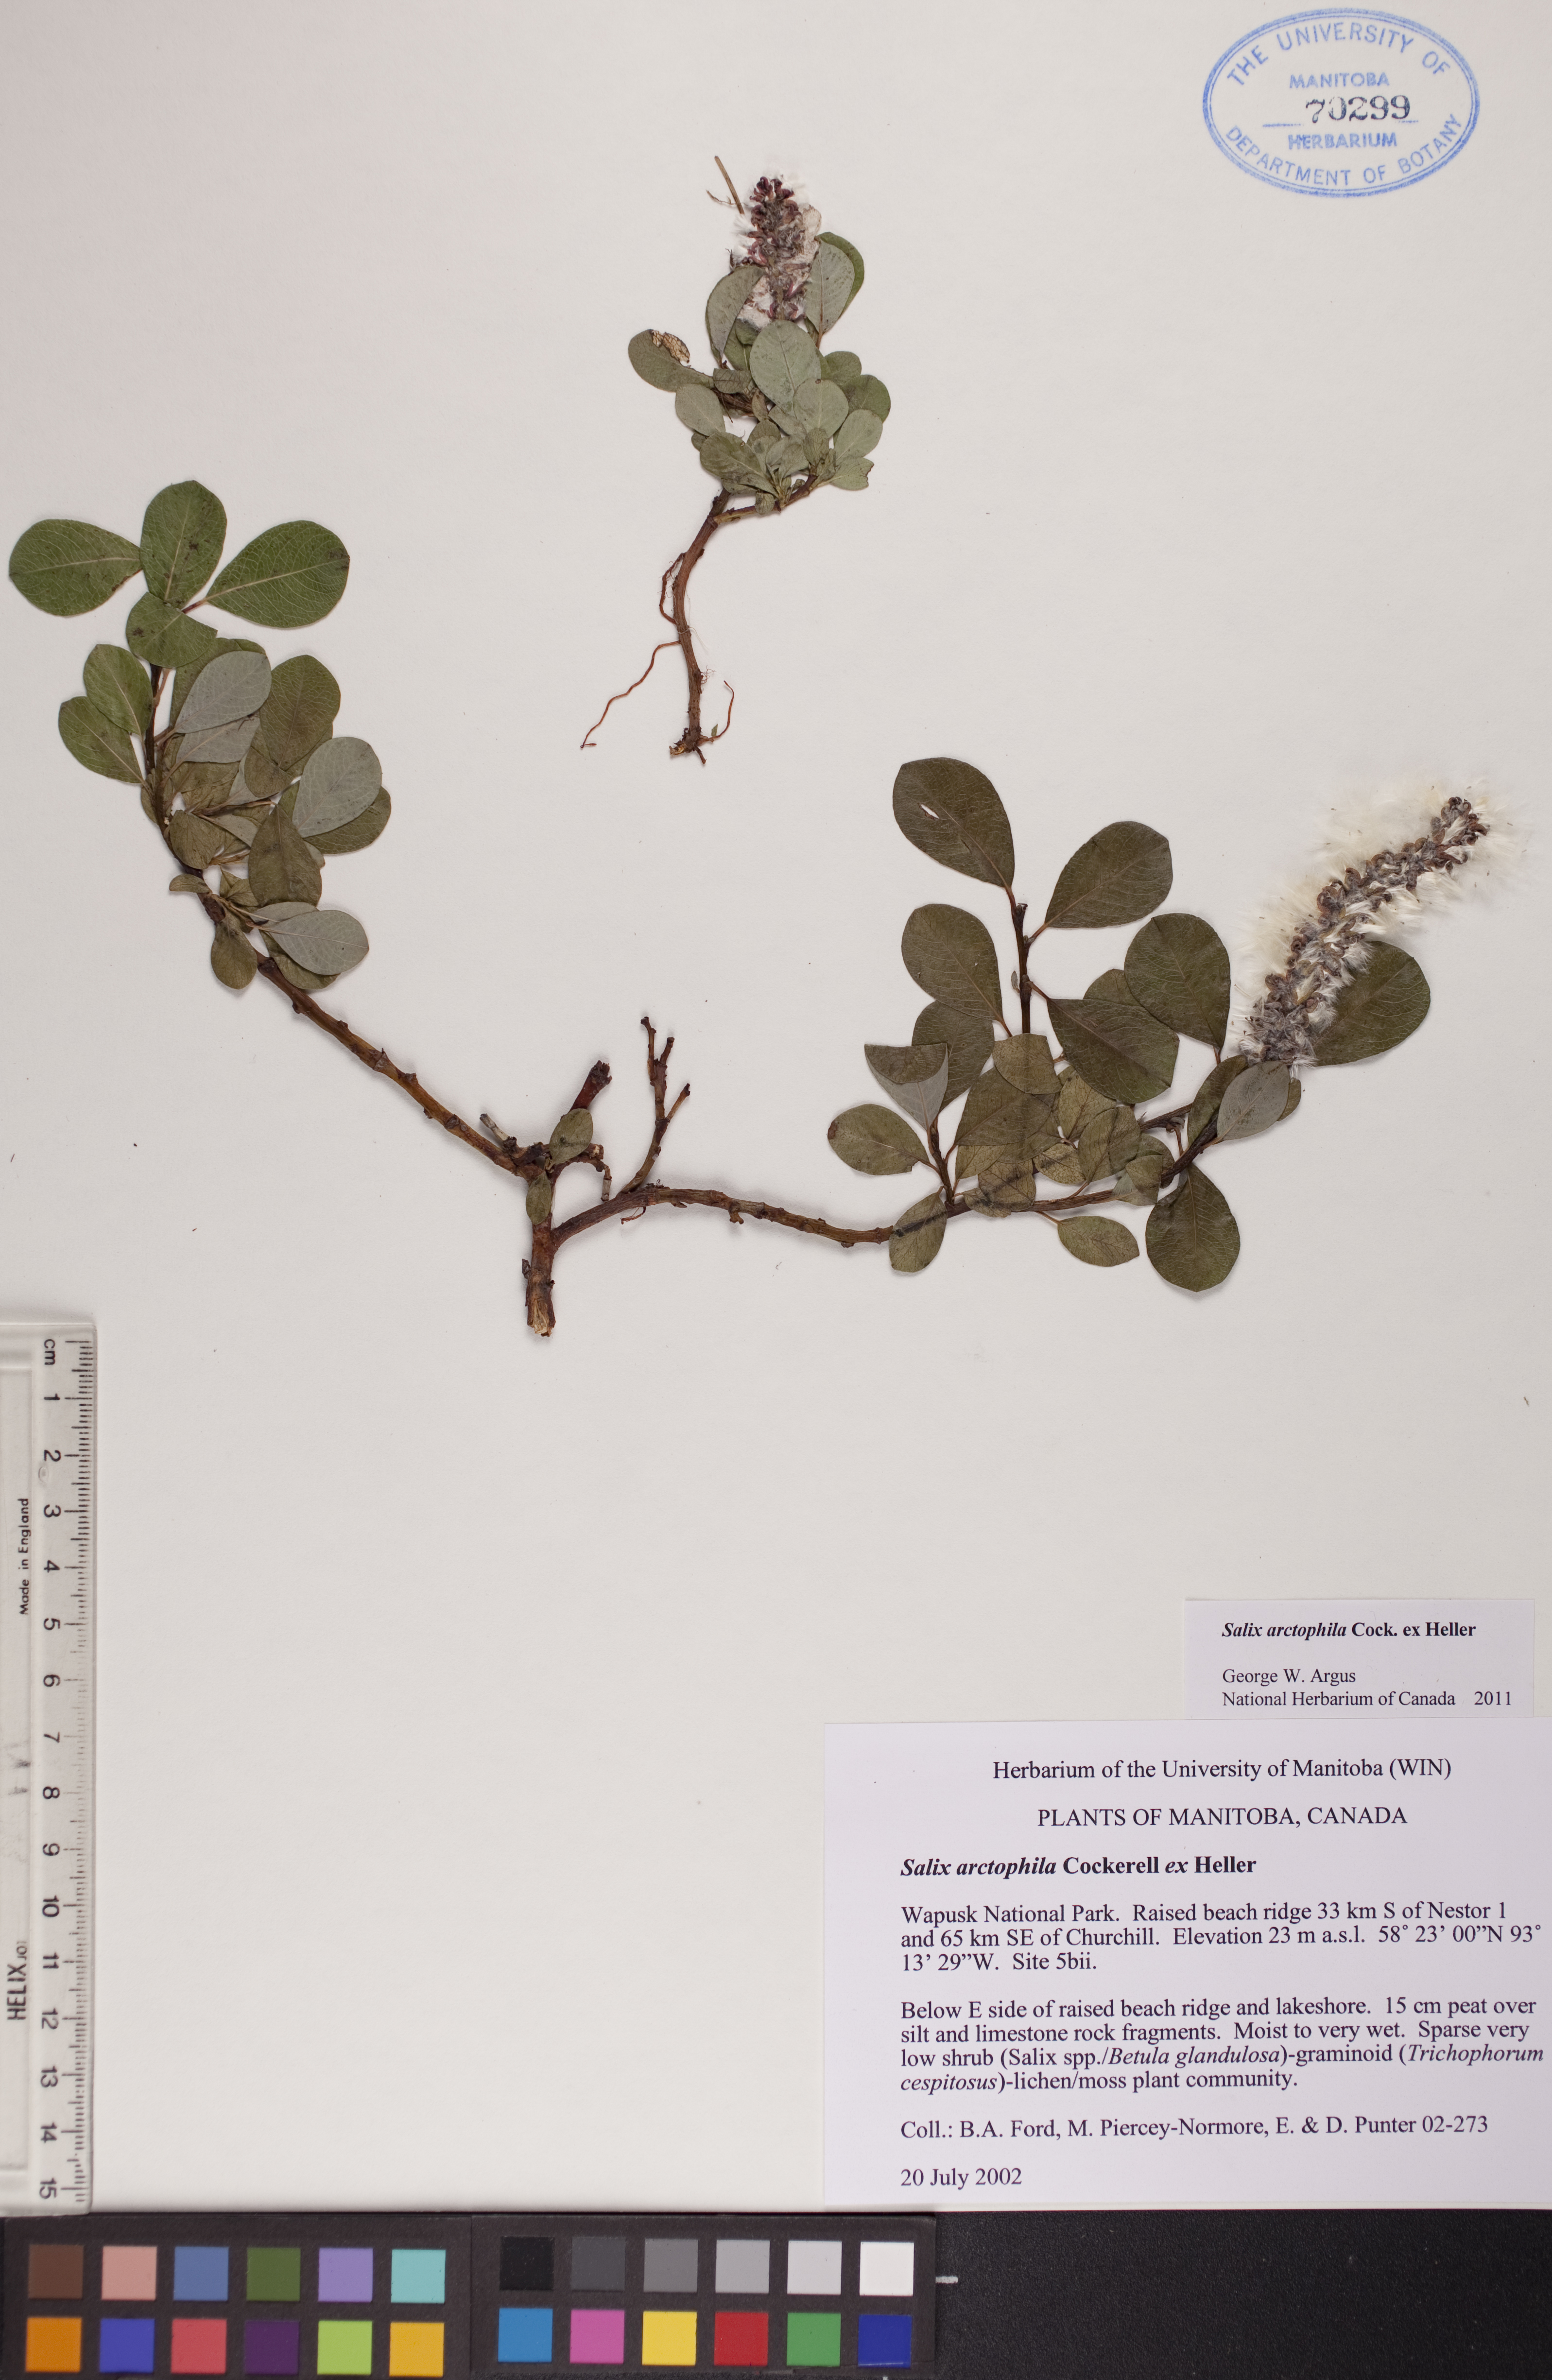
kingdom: Plantae
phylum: Tracheophyta
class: Magnoliopsida
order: Malpighiales
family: Salicaceae
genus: Salix
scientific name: Salix arctophila
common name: Greenland willow
